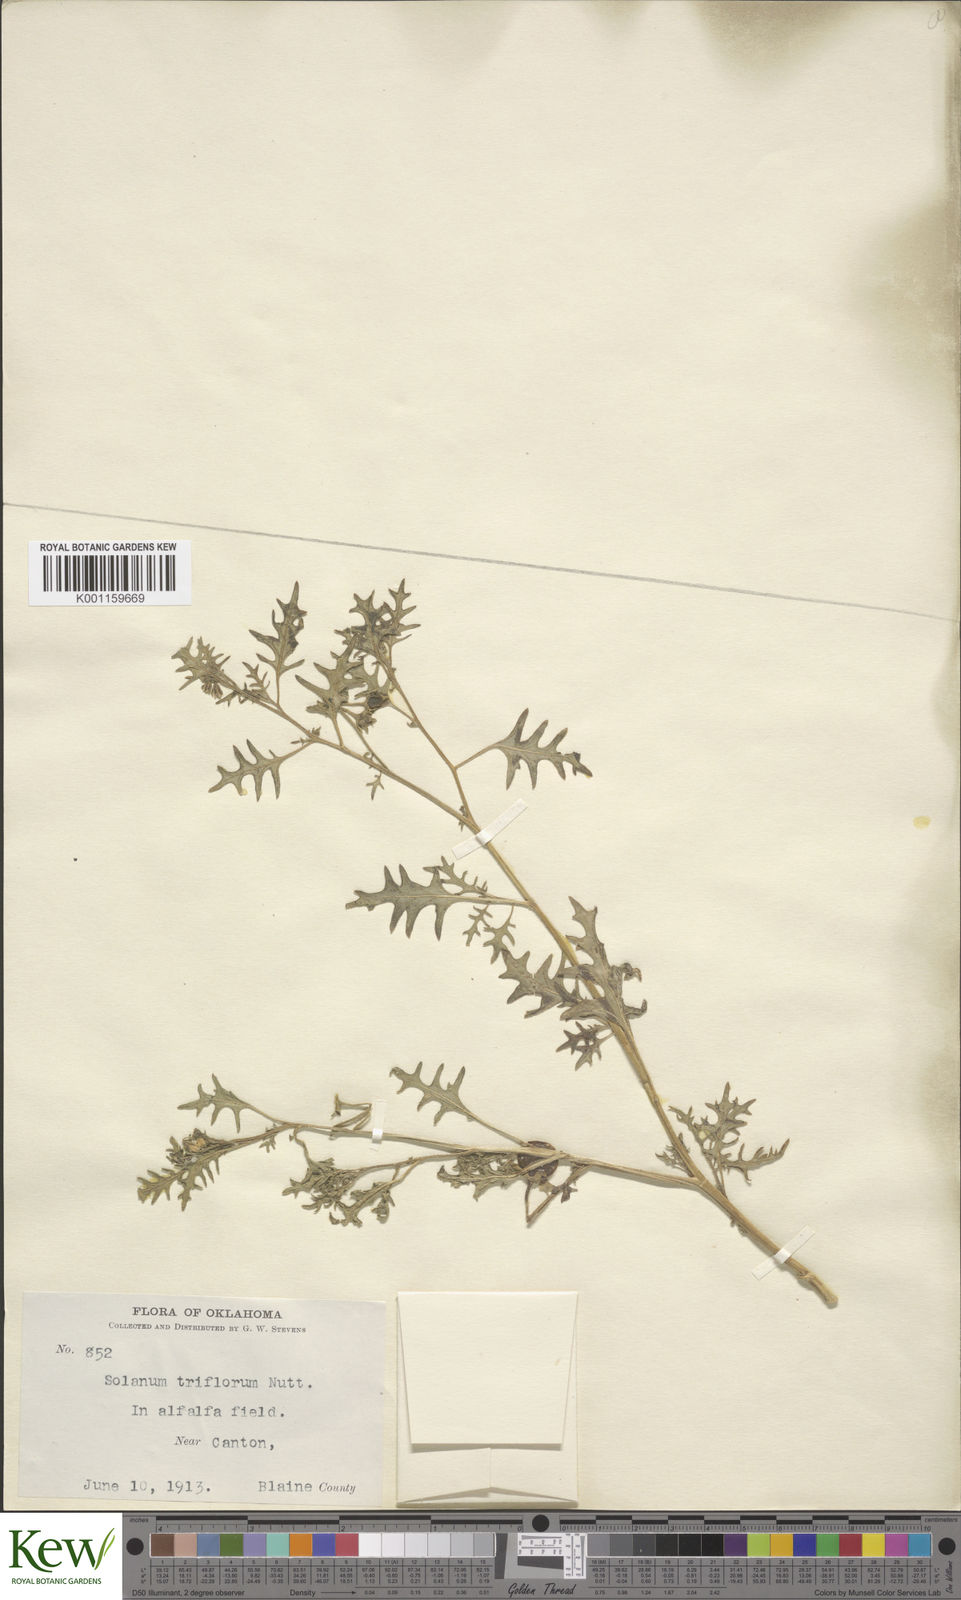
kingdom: Plantae
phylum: Tracheophyta
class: Magnoliopsida
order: Solanales
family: Solanaceae
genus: Solanum
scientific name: Solanum triflorum
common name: Small nightshade
